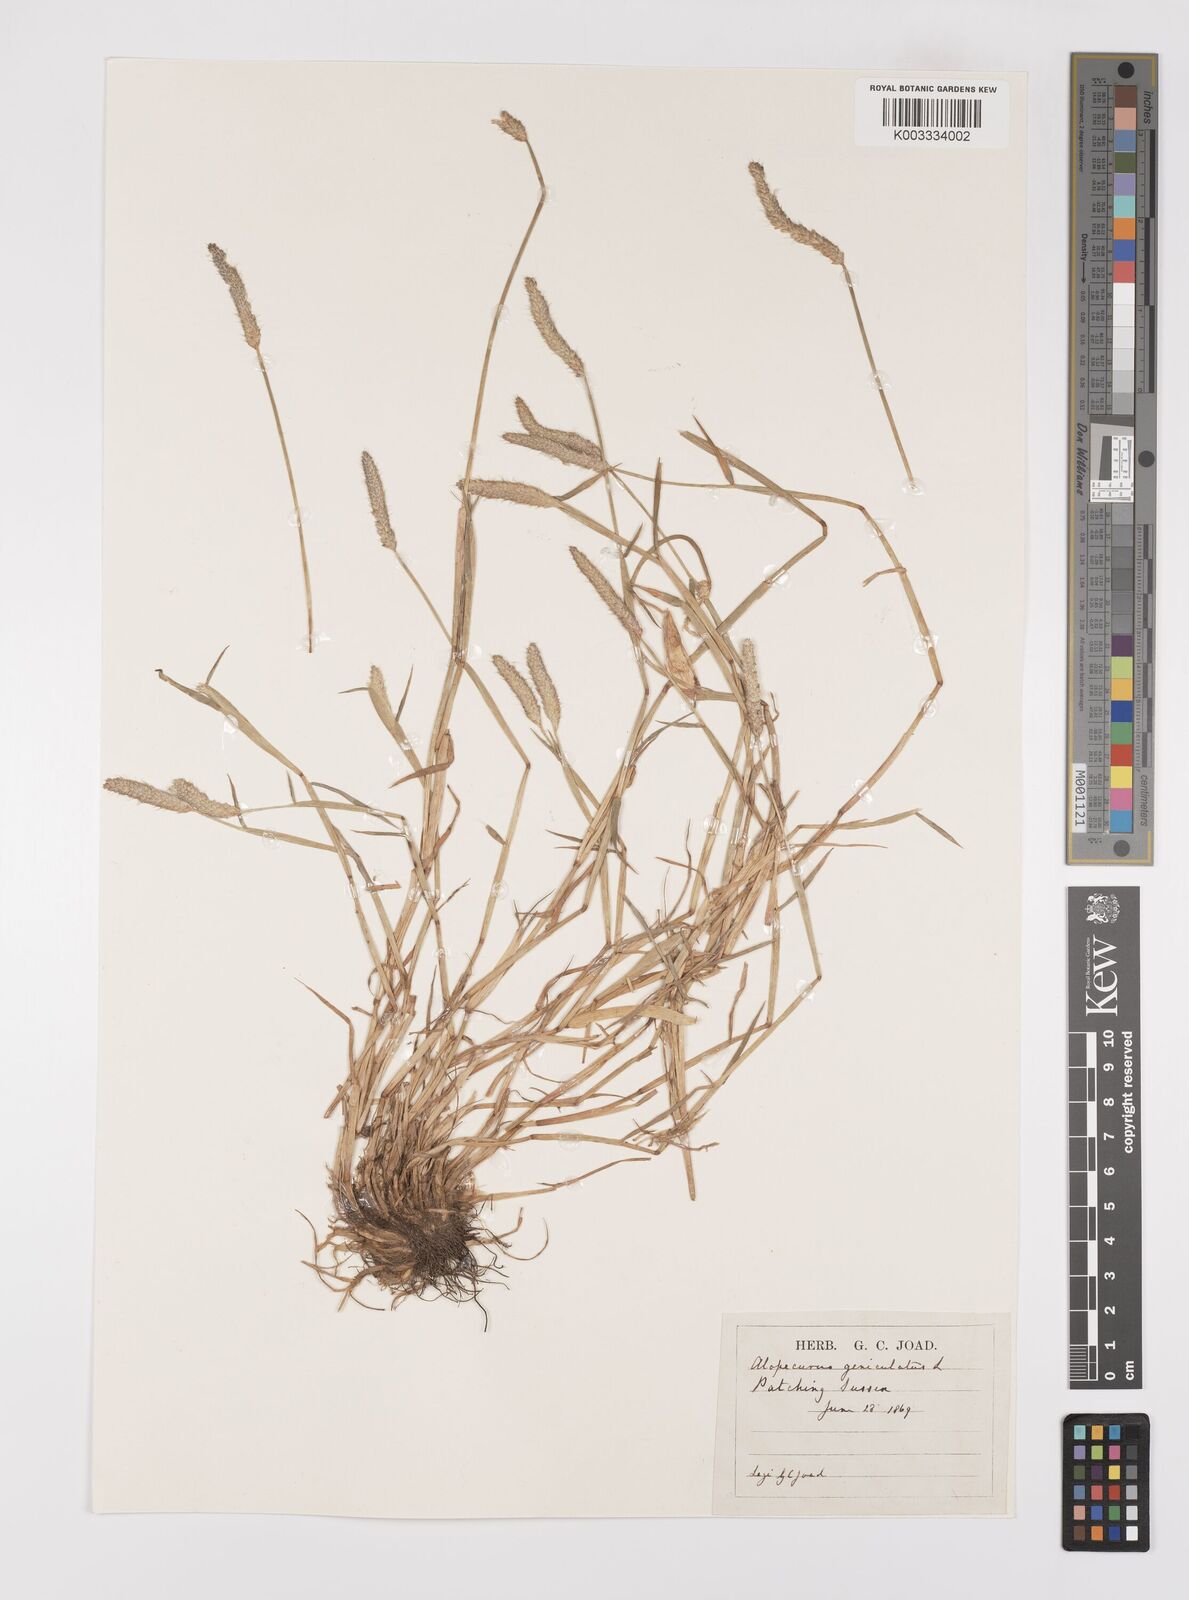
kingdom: Plantae
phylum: Tracheophyta
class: Liliopsida
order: Poales
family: Poaceae
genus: Alopecurus
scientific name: Alopecurus geniculatus
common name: Water foxtail
